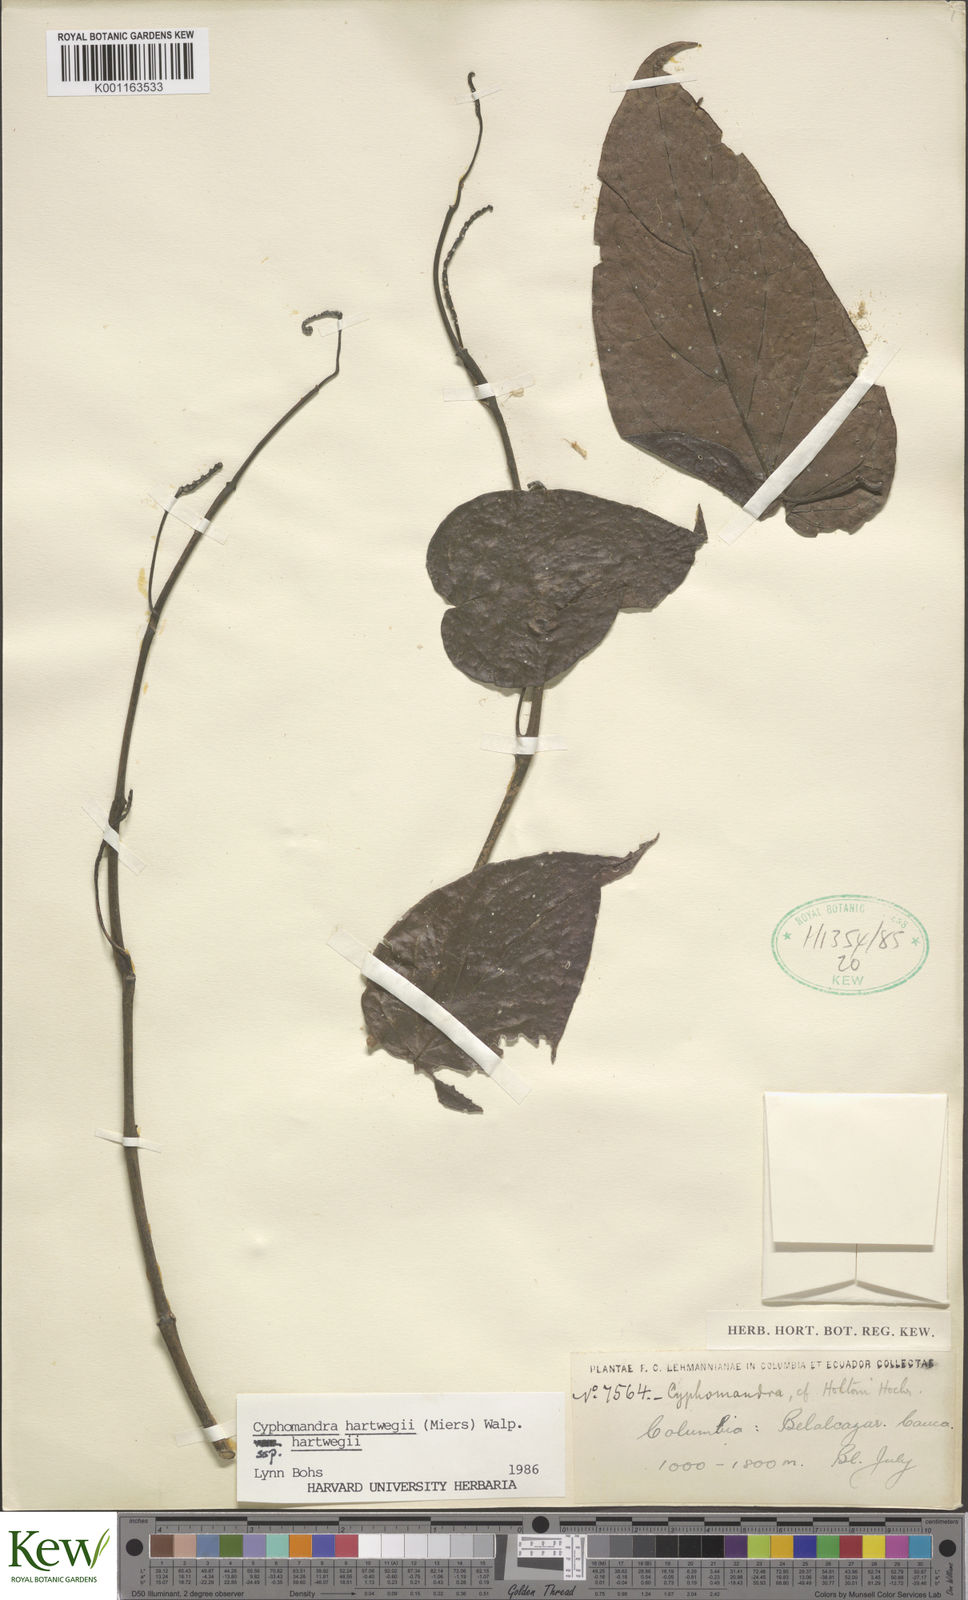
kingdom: Plantae
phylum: Tracheophyta
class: Magnoliopsida
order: Solanales
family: Solanaceae
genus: Solanum
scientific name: Solanum splendens
